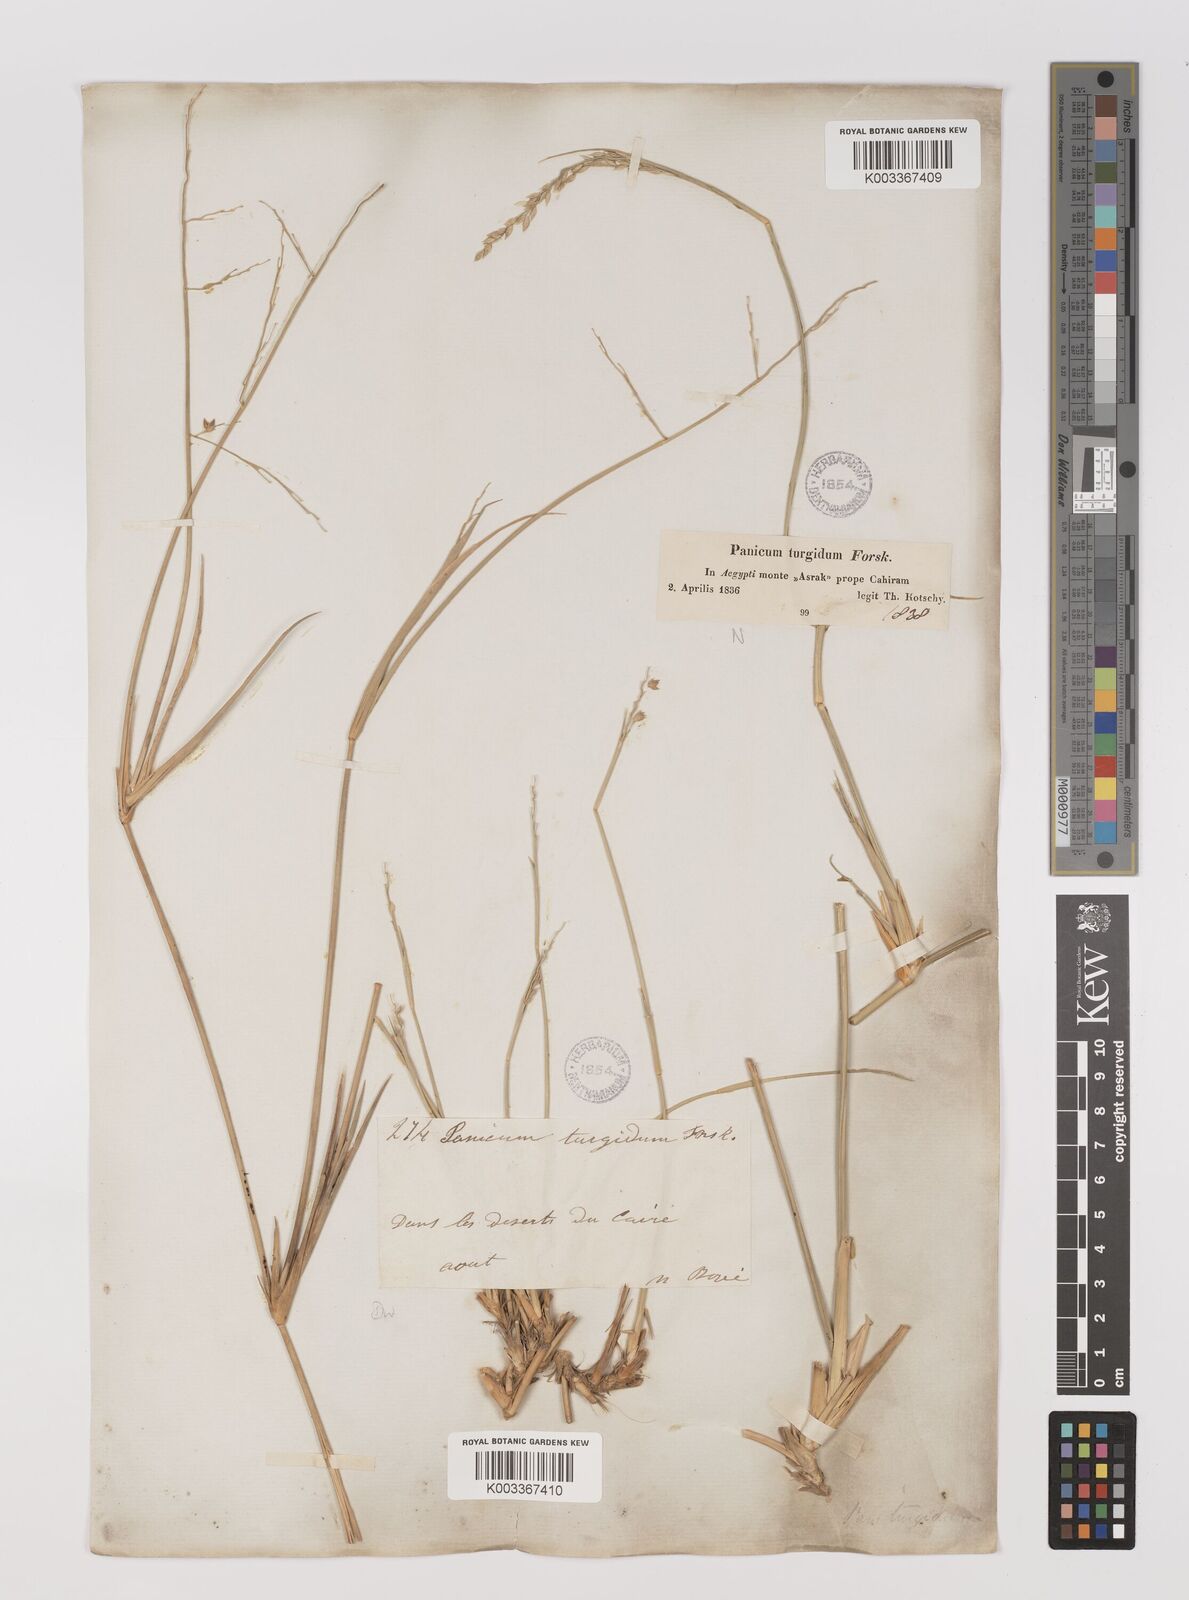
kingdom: Plantae
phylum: Tracheophyta
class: Liliopsida
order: Poales
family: Poaceae
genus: Panicum
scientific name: Panicum turgidum
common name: Desert grass
